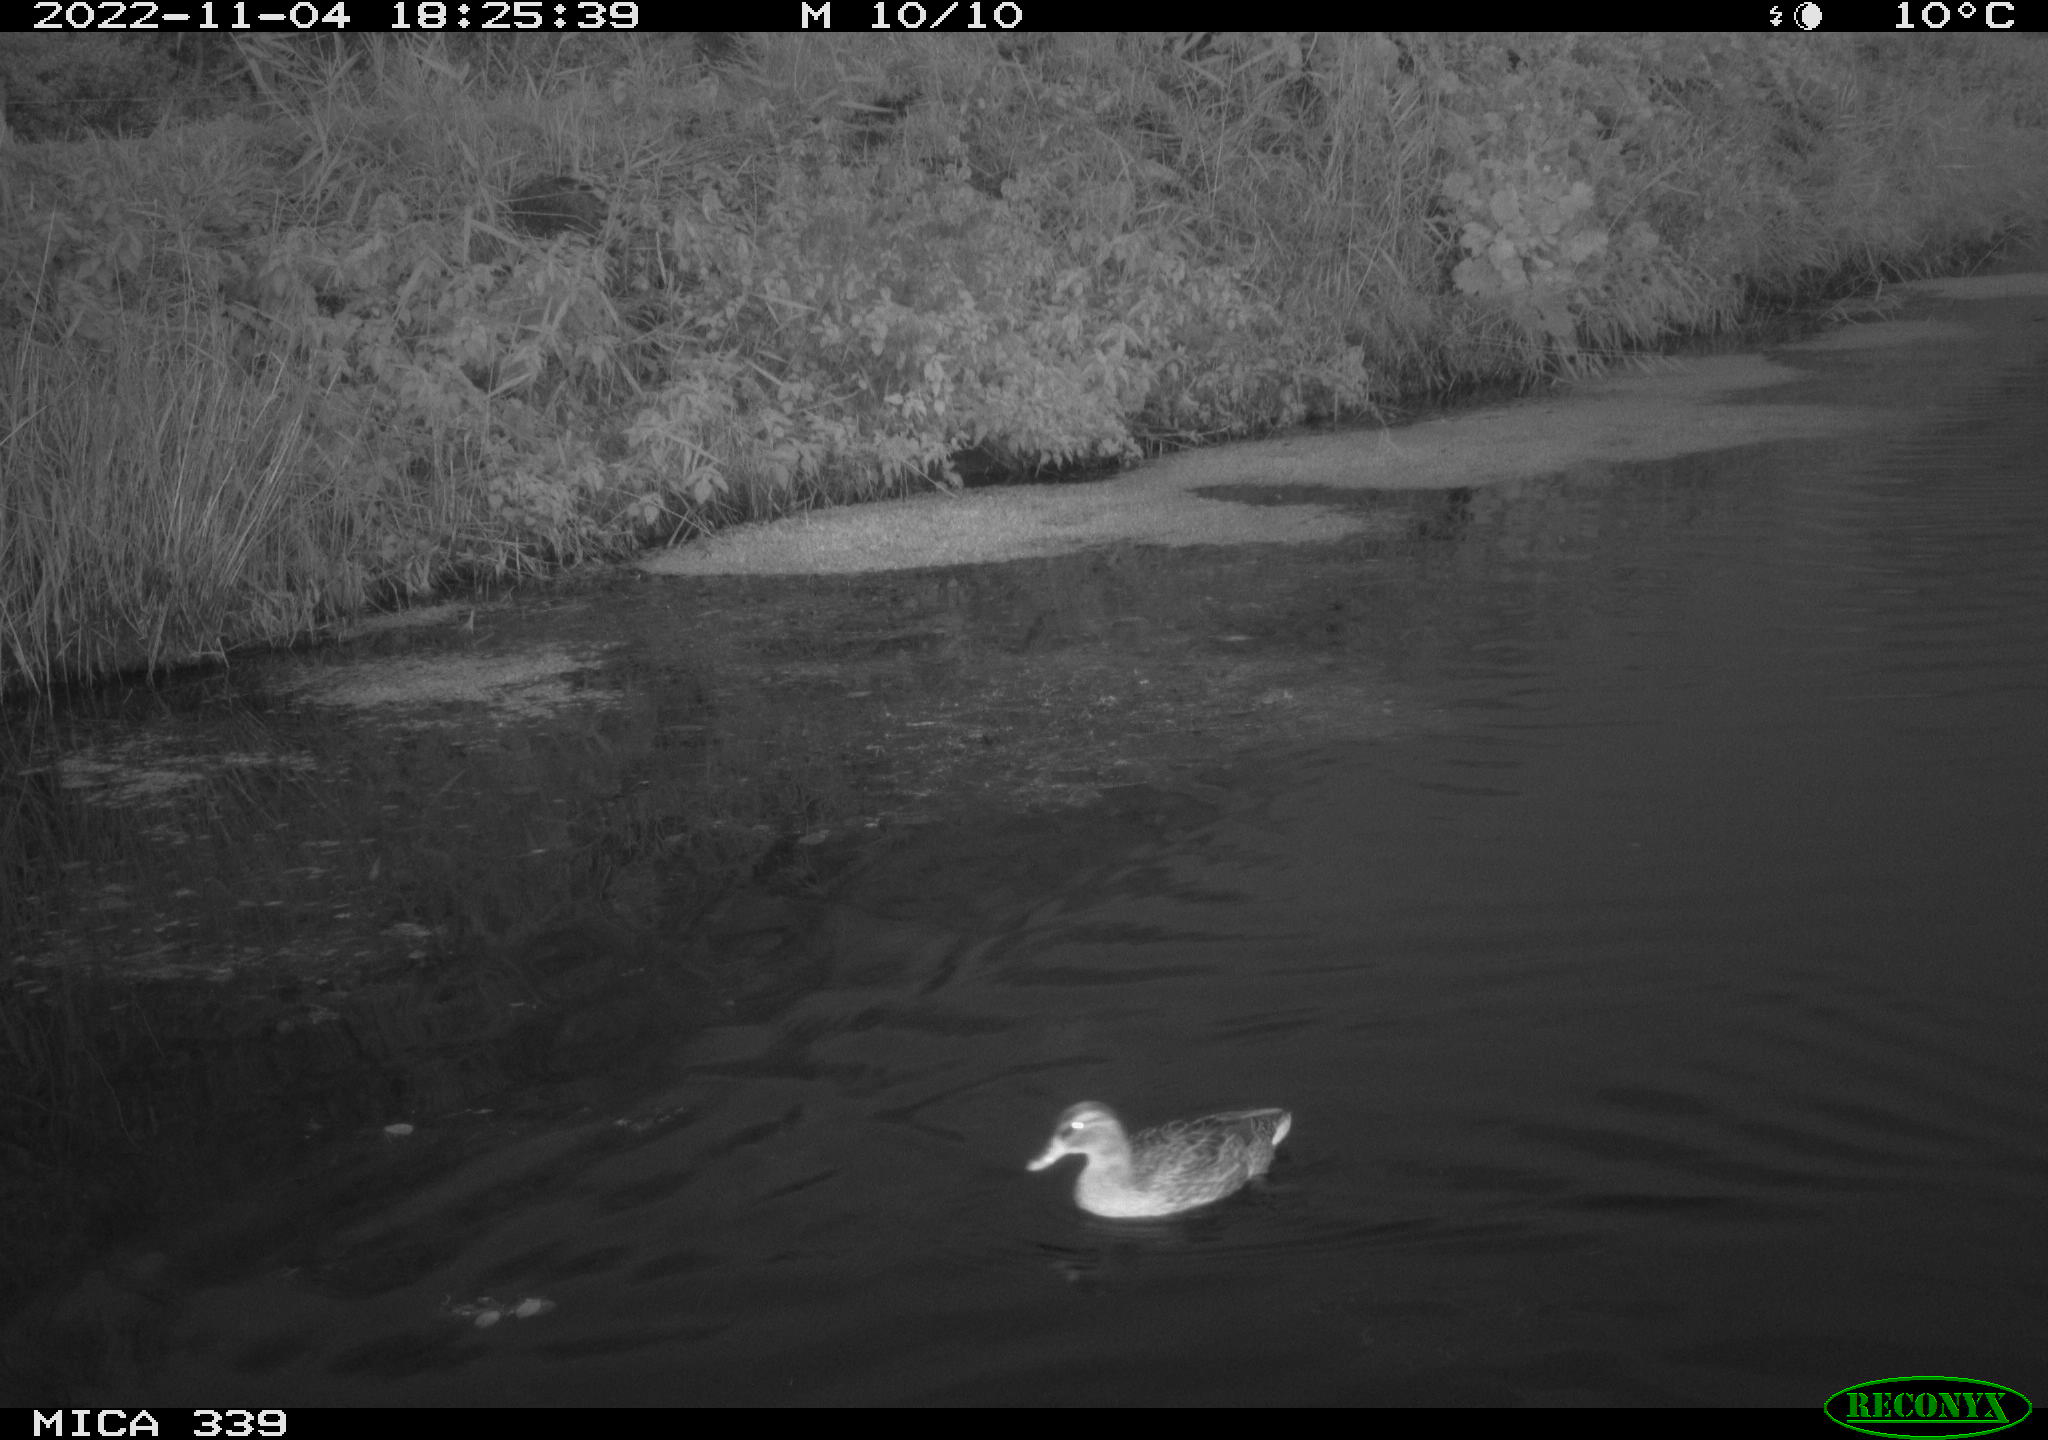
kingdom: Animalia
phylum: Chordata
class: Aves
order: Anseriformes
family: Anatidae
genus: Anas
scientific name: Anas platyrhynchos
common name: Mallard
